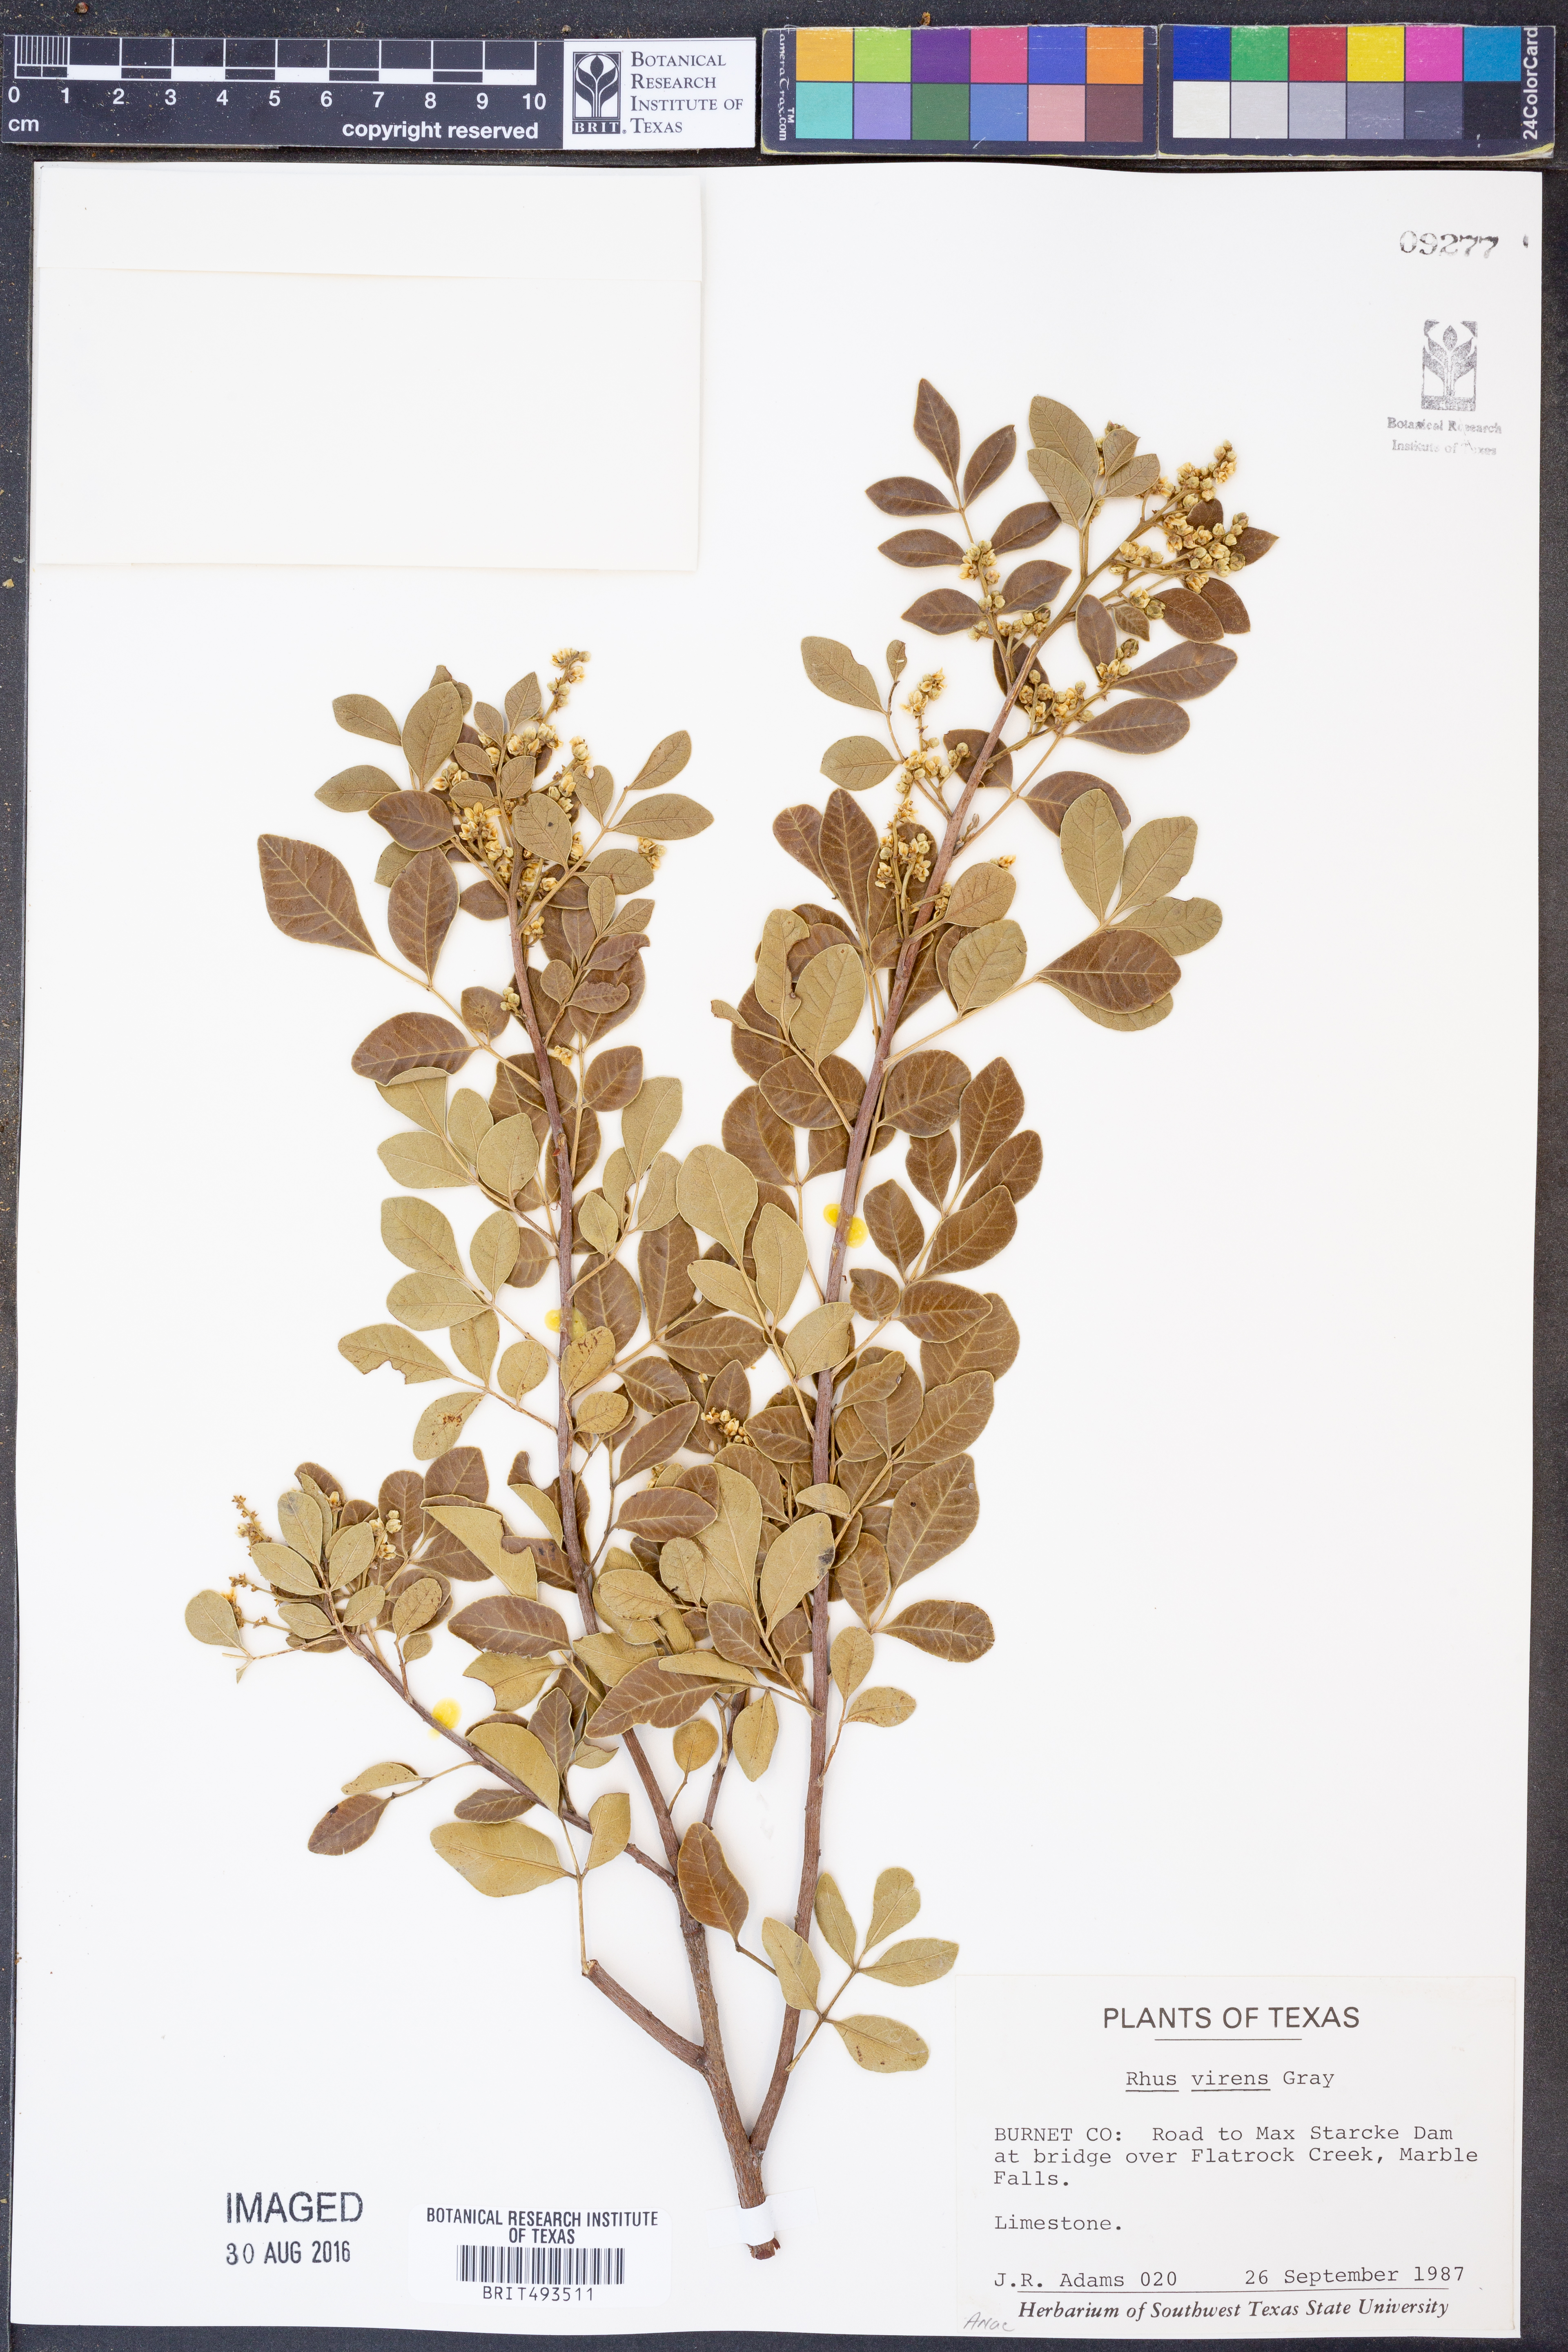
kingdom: Plantae
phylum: Tracheophyta
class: Magnoliopsida
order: Sapindales
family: Anacardiaceae
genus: Rhus
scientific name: Rhus virens
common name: Evergreen sumac
